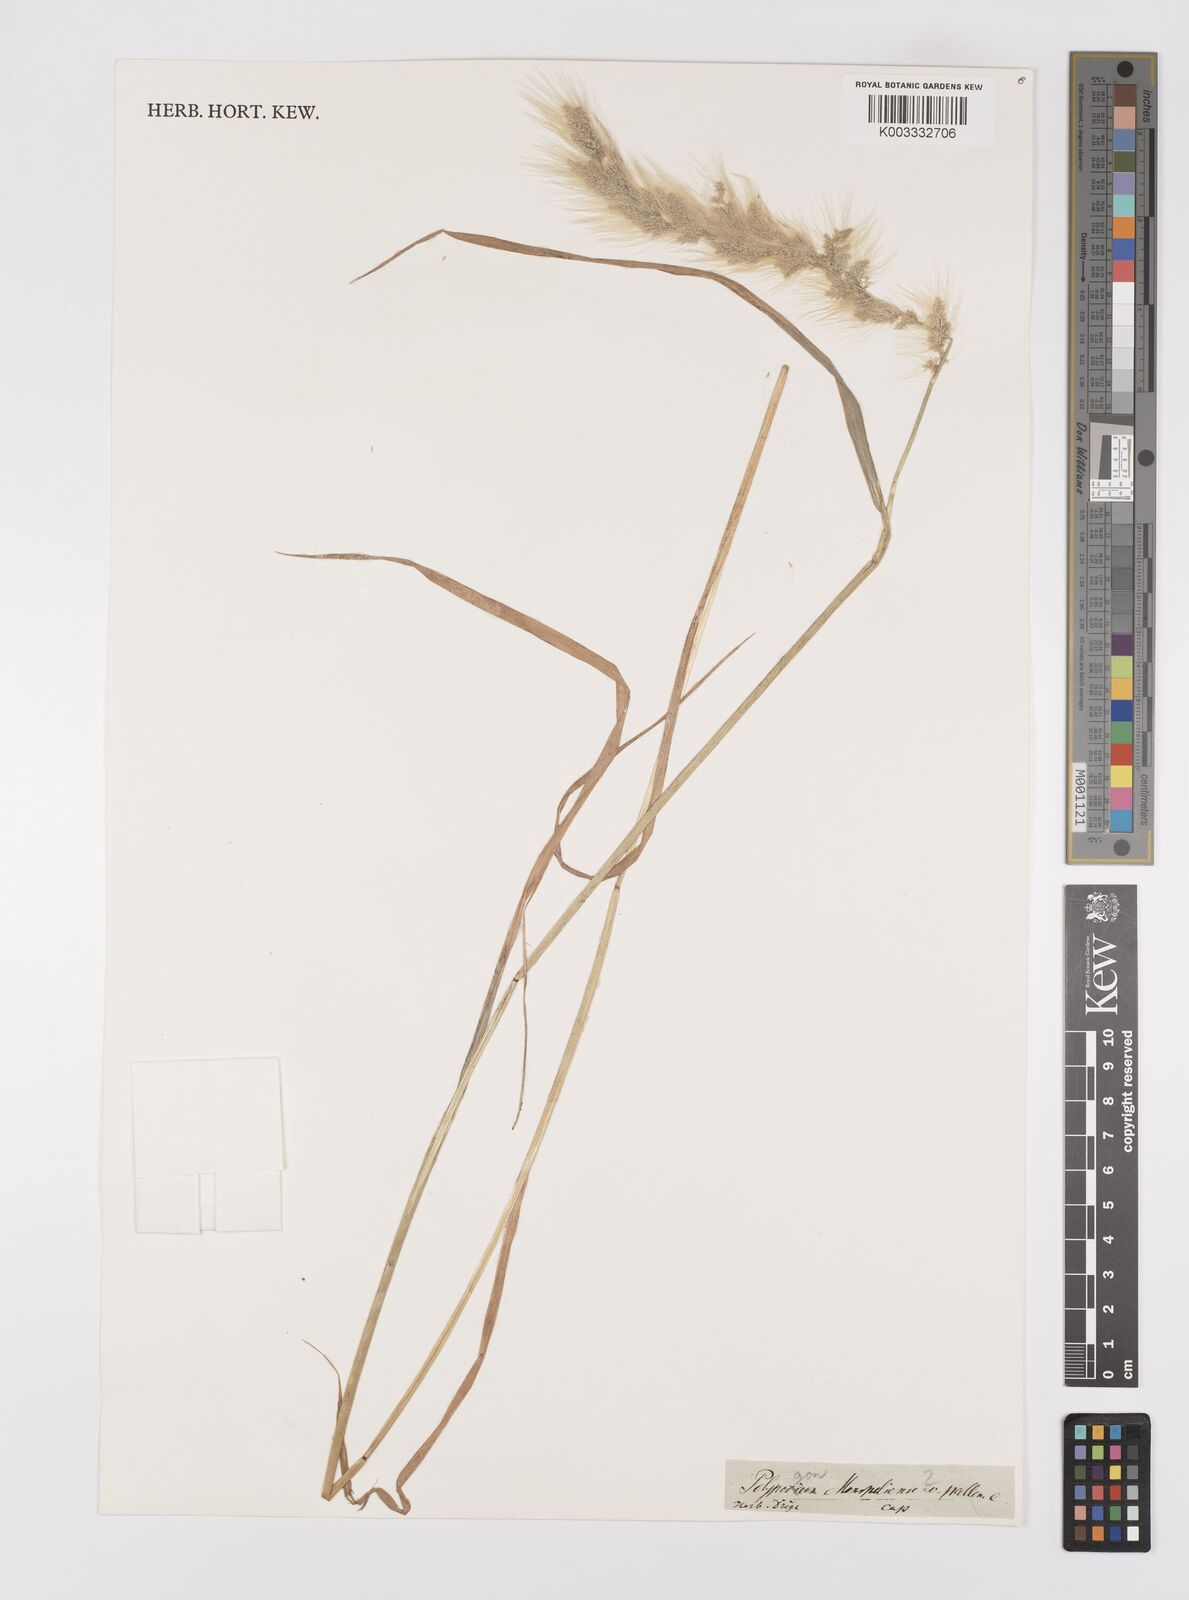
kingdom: Plantae
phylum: Tracheophyta
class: Liliopsida
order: Poales
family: Poaceae
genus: Polypogon
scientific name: Polypogon monspeliensis
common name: Annual rabbitsfoot grass
